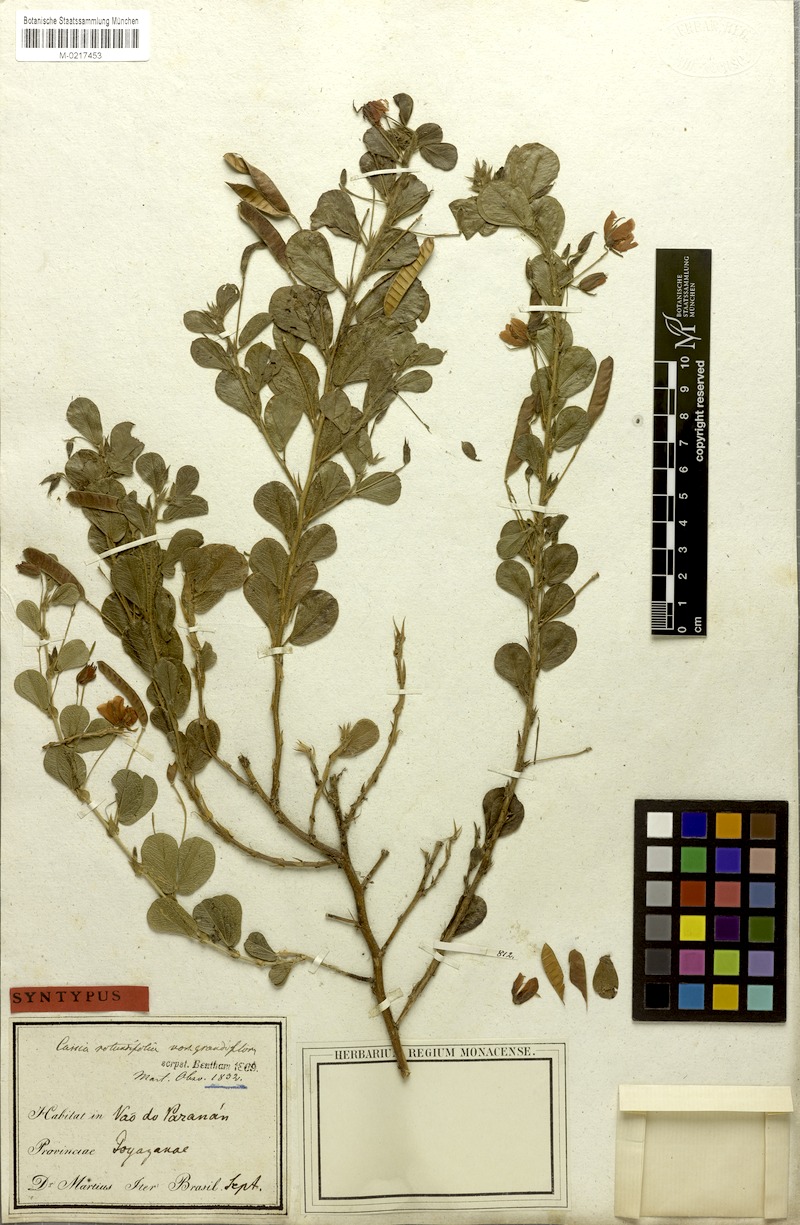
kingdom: Plantae
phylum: Tracheophyta
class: Magnoliopsida
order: Fabales
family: Fabaceae
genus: Chamaecrista
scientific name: Chamaecrista rotundifolia
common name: Round-leaf cassia
